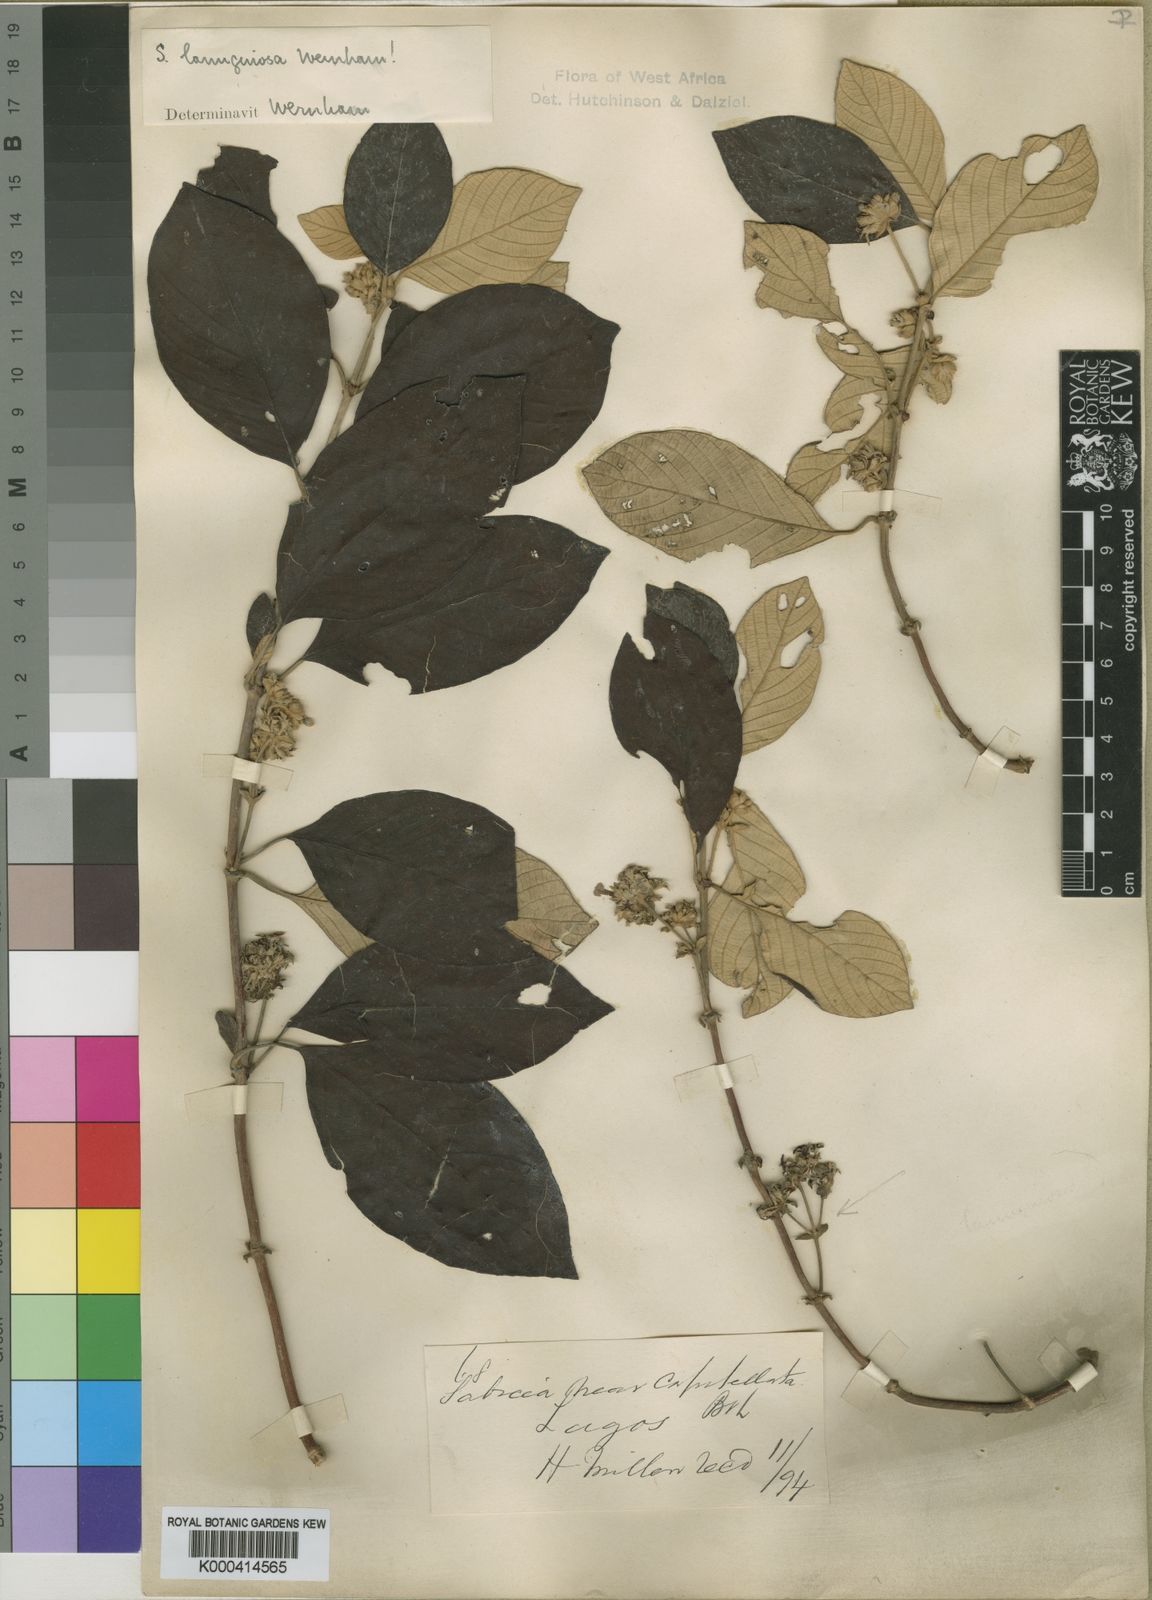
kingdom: Plantae
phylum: Tracheophyta
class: Magnoliopsida
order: Gentianales
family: Rubiaceae
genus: Sabicea
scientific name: Sabicea lanuginosa
